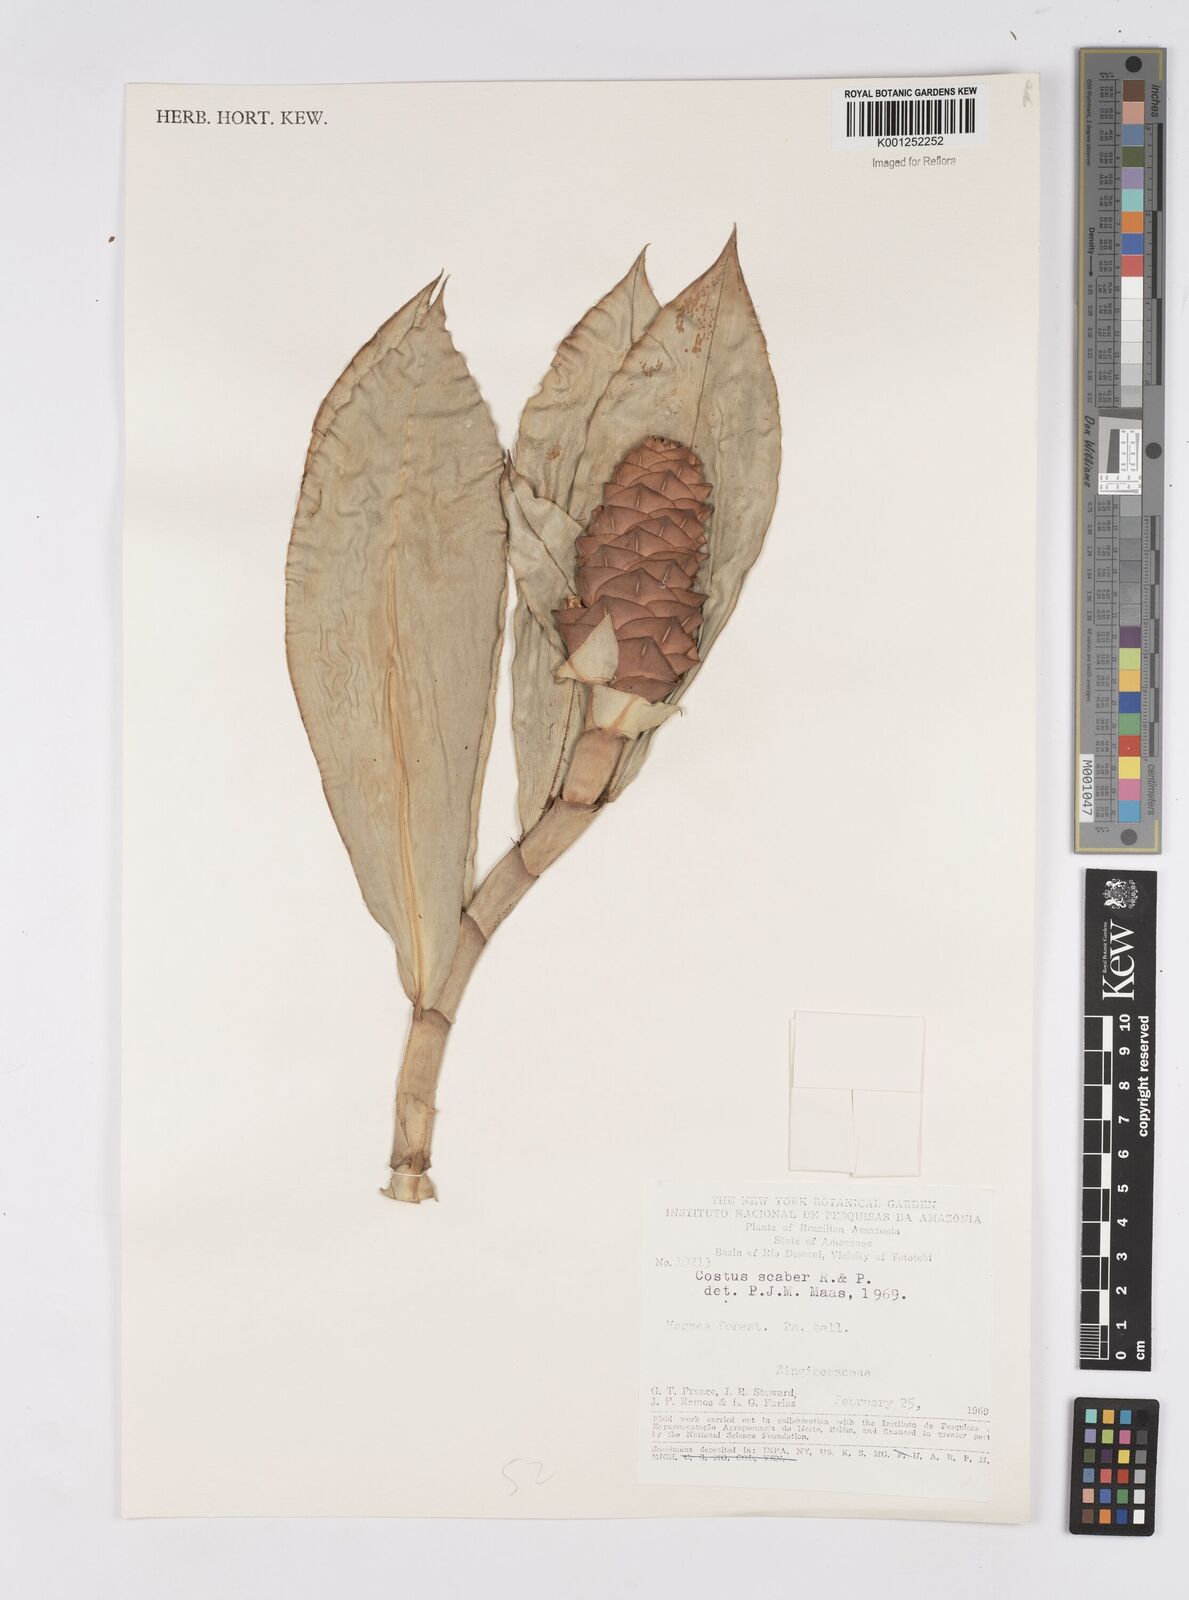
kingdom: Plantae
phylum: Tracheophyta
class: Liliopsida
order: Zingiberales
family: Costaceae
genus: Costus
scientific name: Costus scaber
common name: Spiral head ginger
